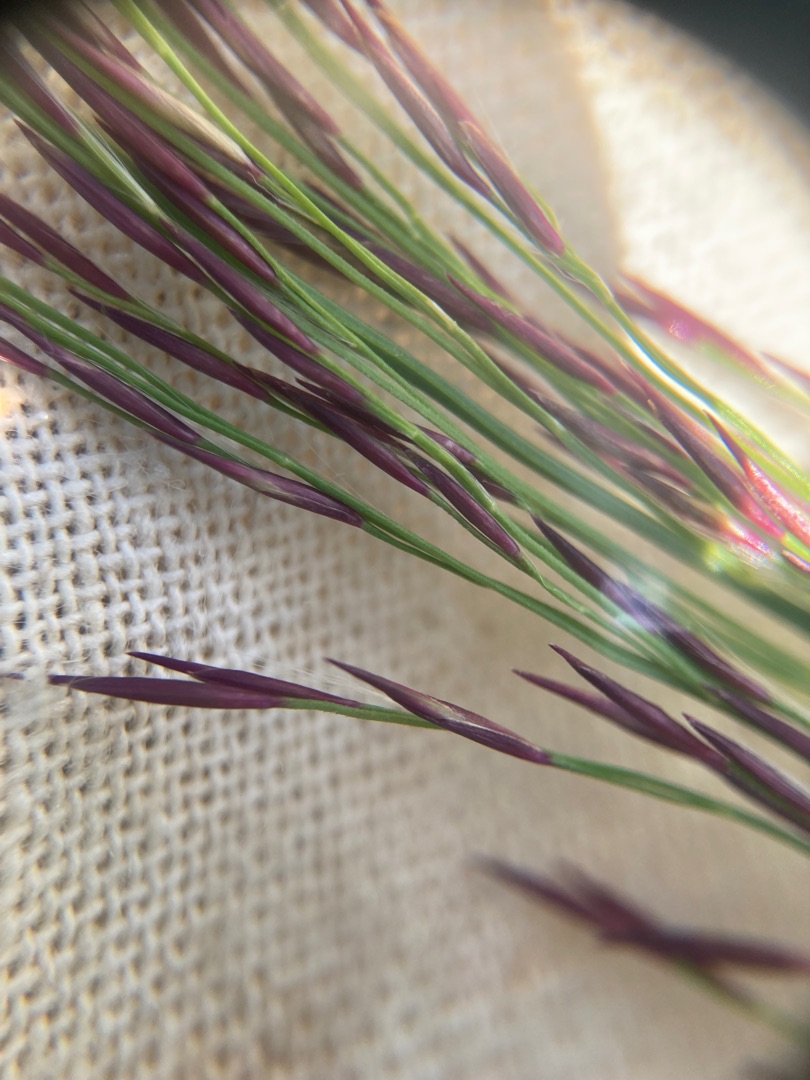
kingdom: Plantae
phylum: Tracheophyta
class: Liliopsida
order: Poales
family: Poaceae
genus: Phragmites
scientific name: Phragmites australis
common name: Tagrør
